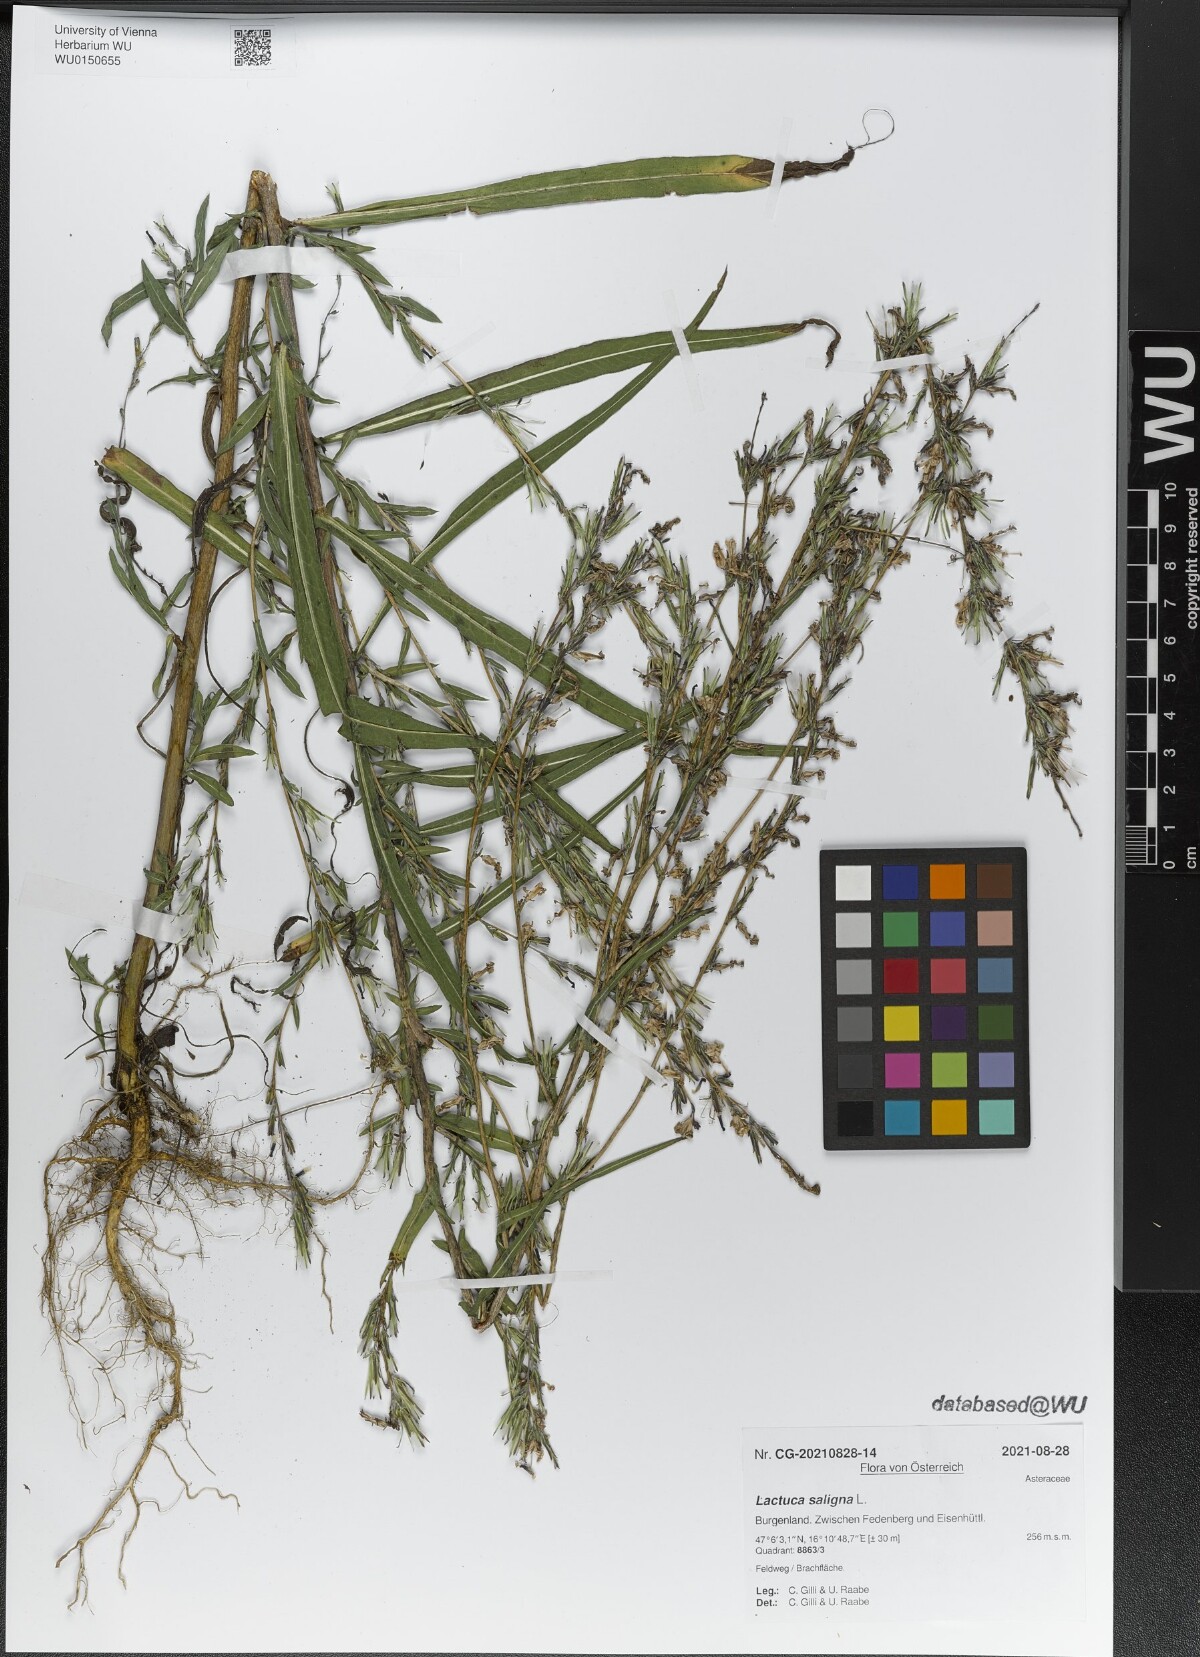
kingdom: Plantae
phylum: Tracheophyta
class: Magnoliopsida
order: Asterales
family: Asteraceae
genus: Lactuca
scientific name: Lactuca saligna
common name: Wild lettuce
